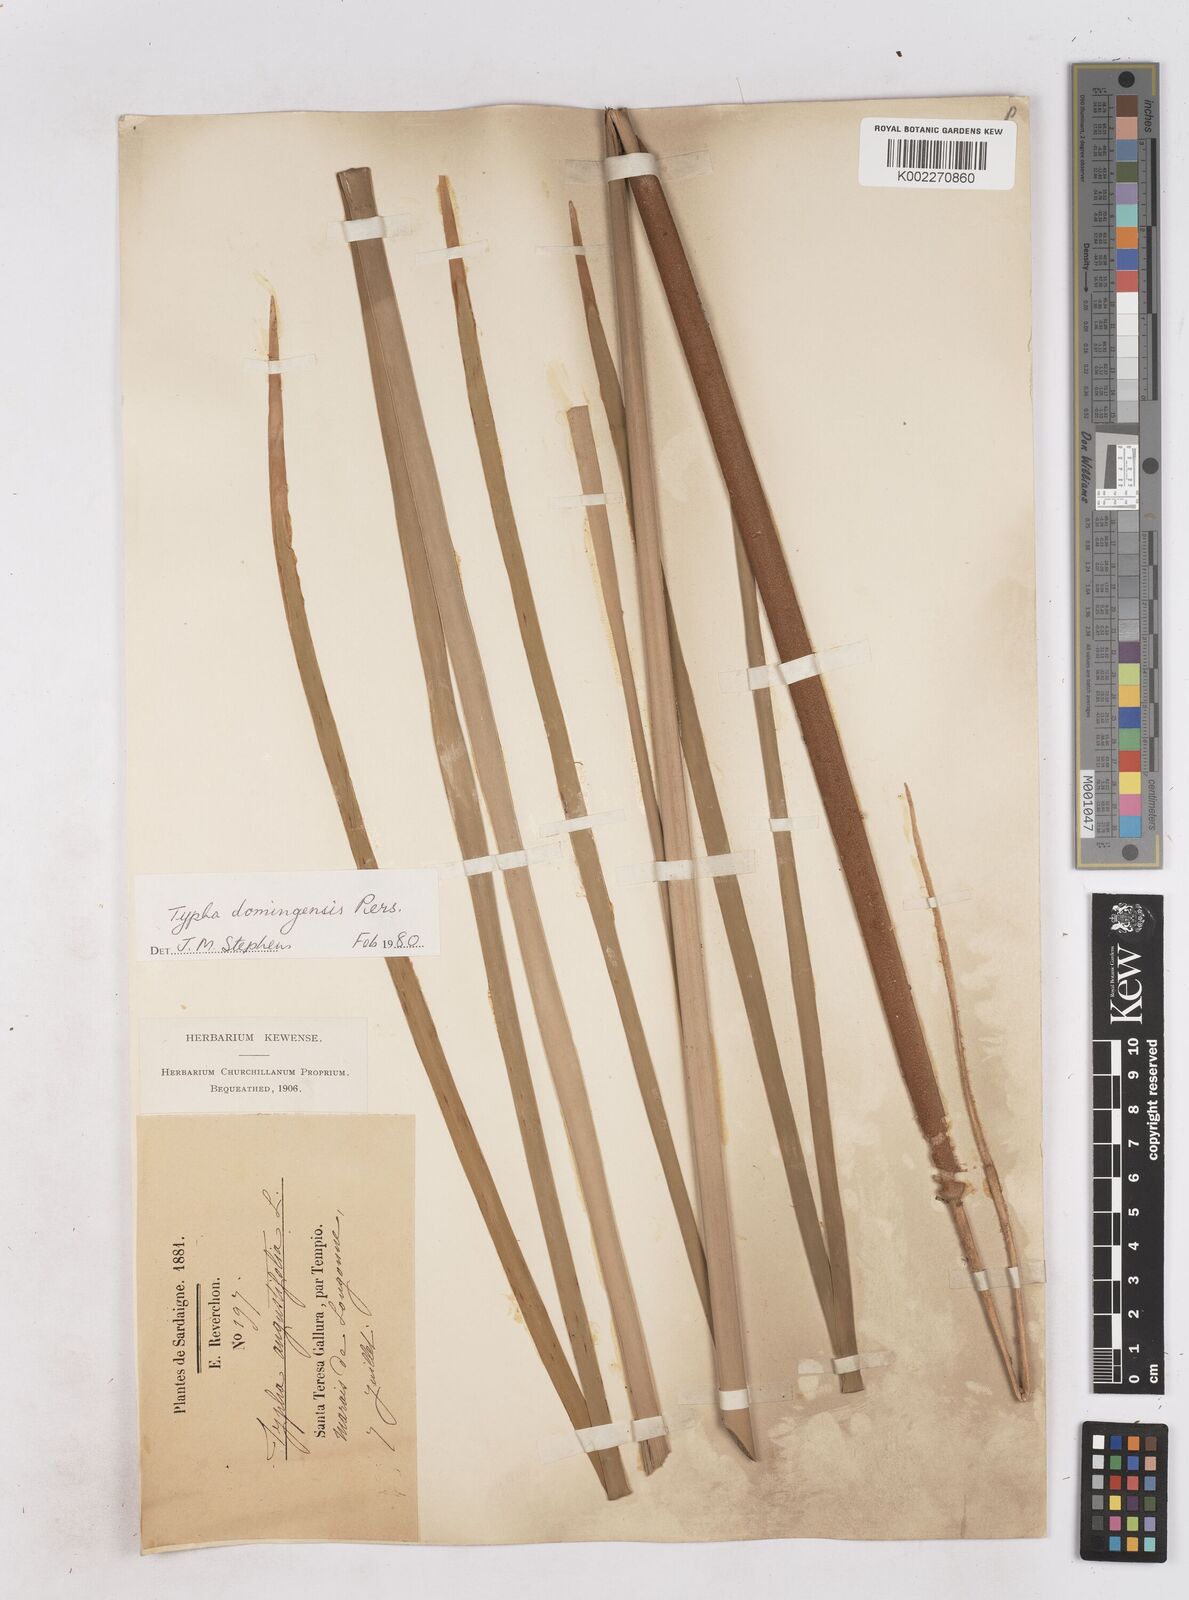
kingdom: Plantae
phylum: Tracheophyta
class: Liliopsida
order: Poales
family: Typhaceae
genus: Typha
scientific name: Typha domingensis
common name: Southern cattail
